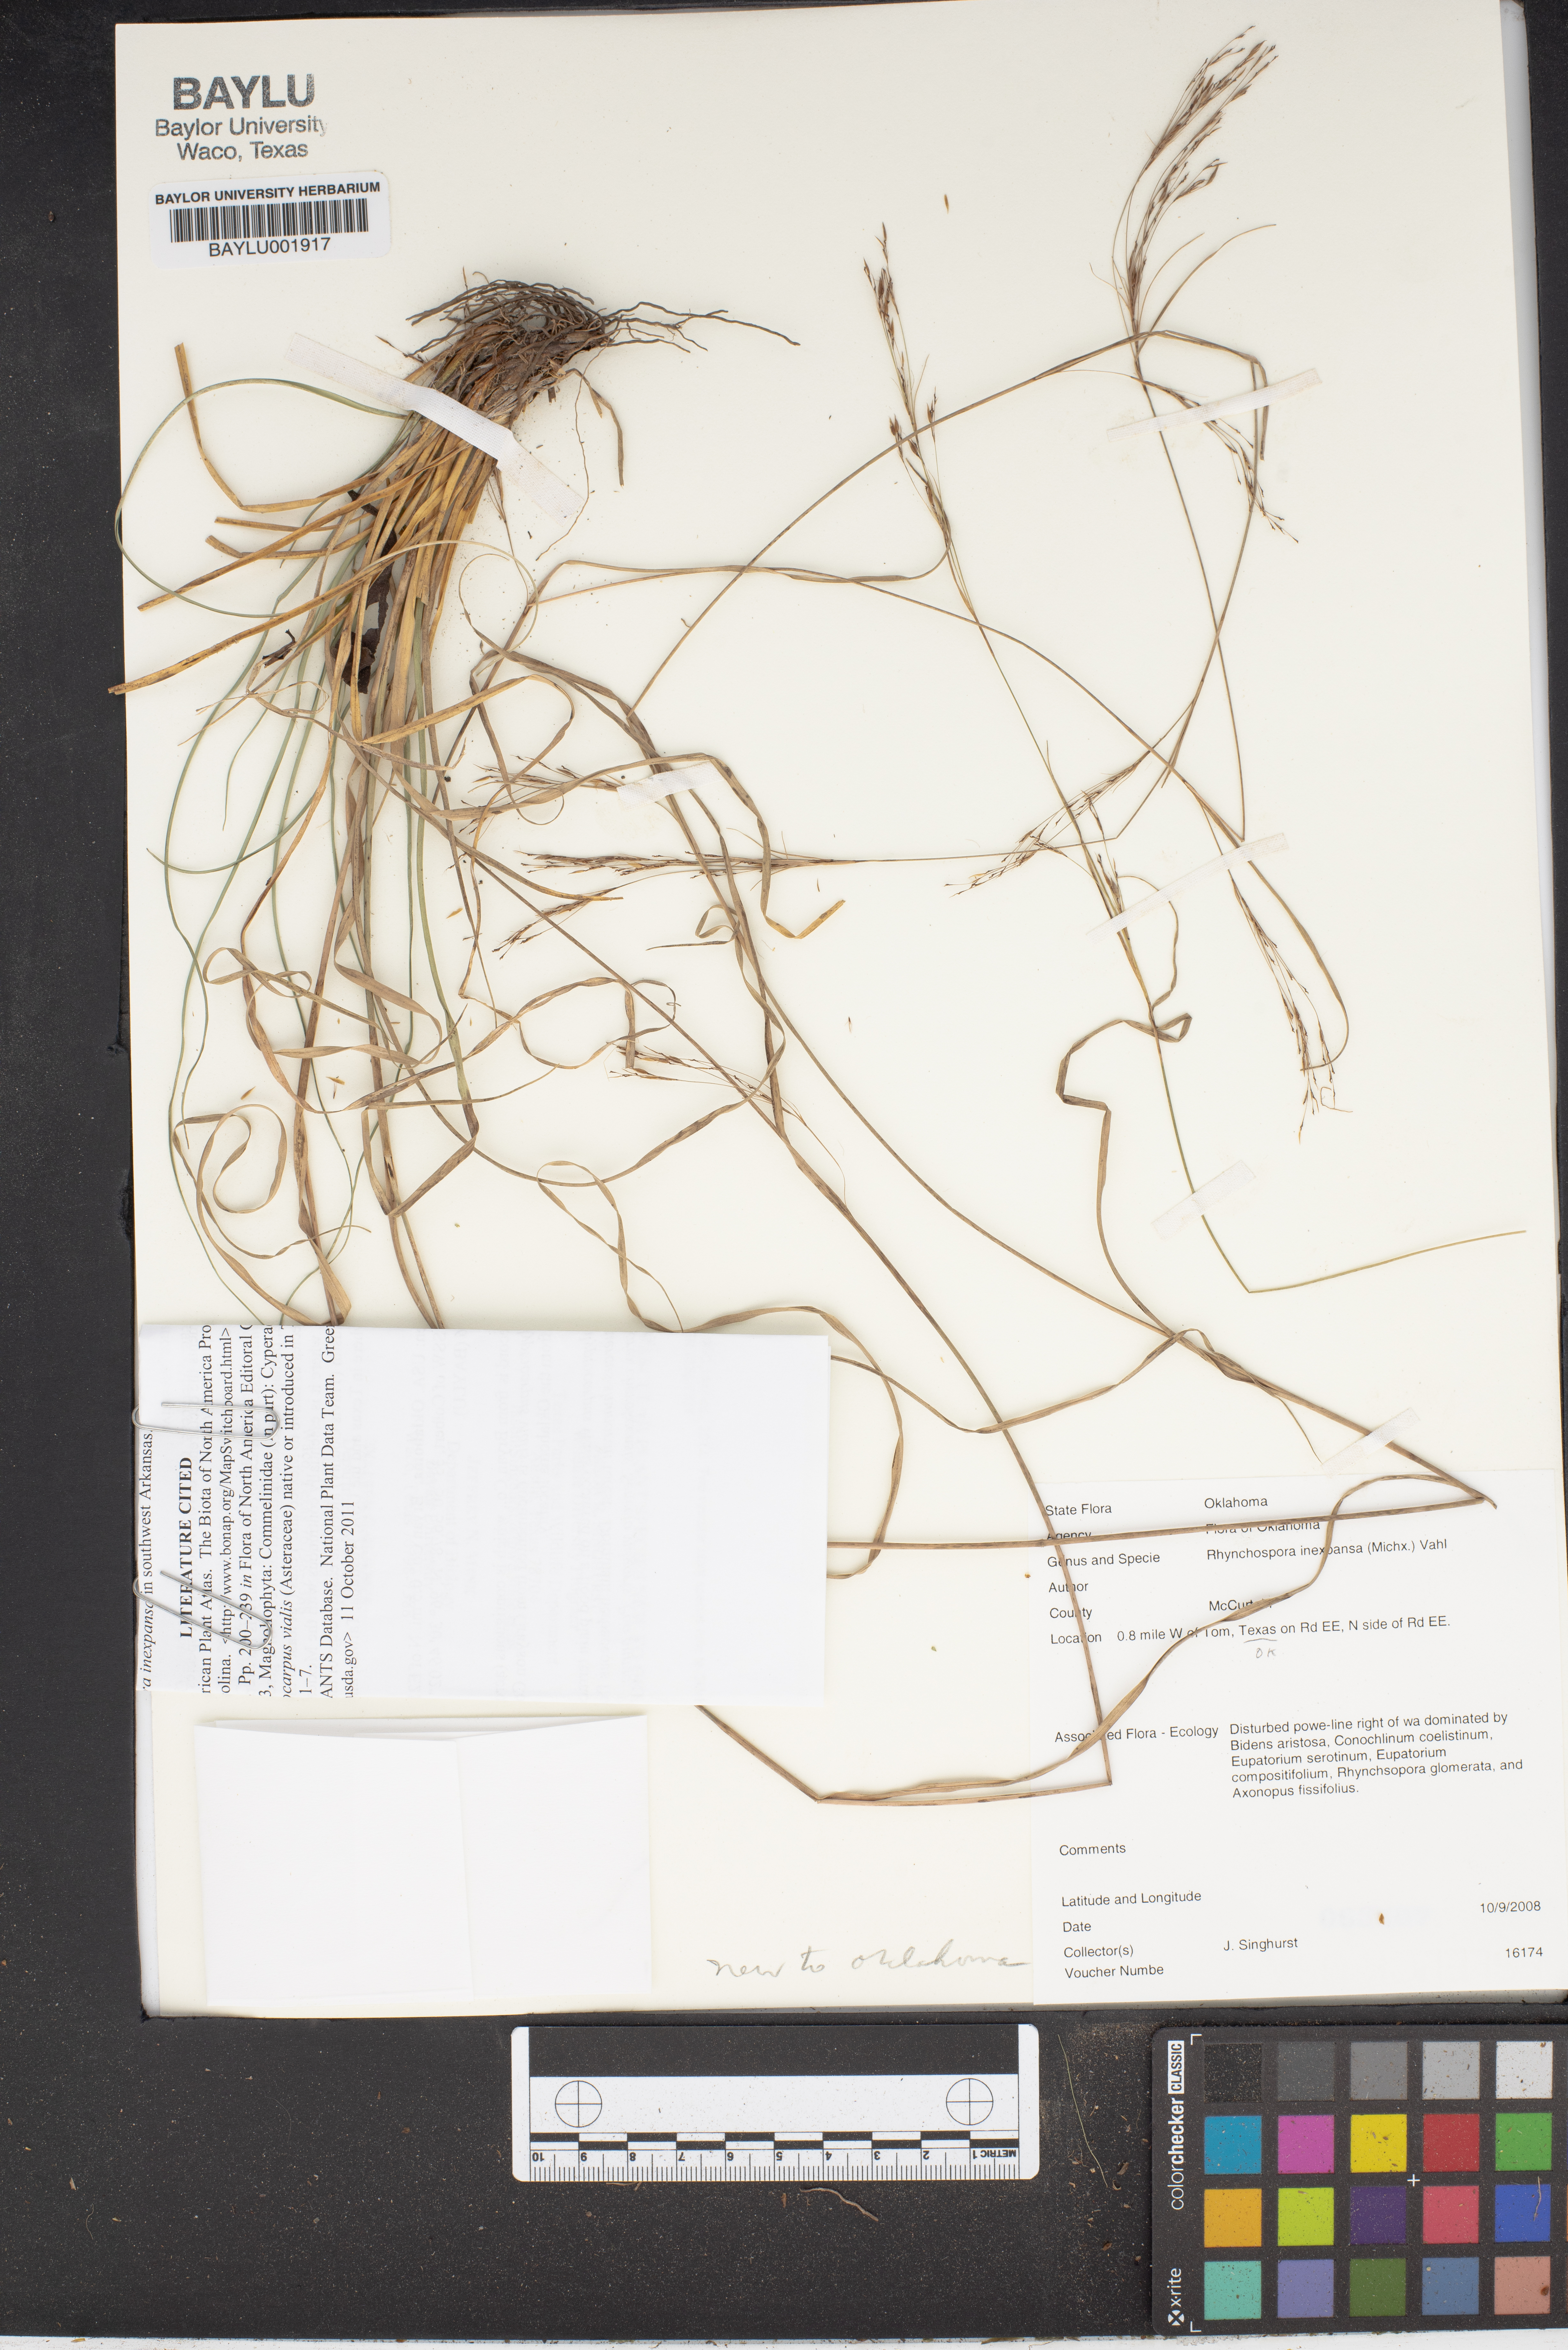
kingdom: Plantae
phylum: Tracheophyta
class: Liliopsida
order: Poales
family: Cyperaceae
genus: Rhynchospora
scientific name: Rhynchospora inexpansa
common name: Nodding beaksedge
